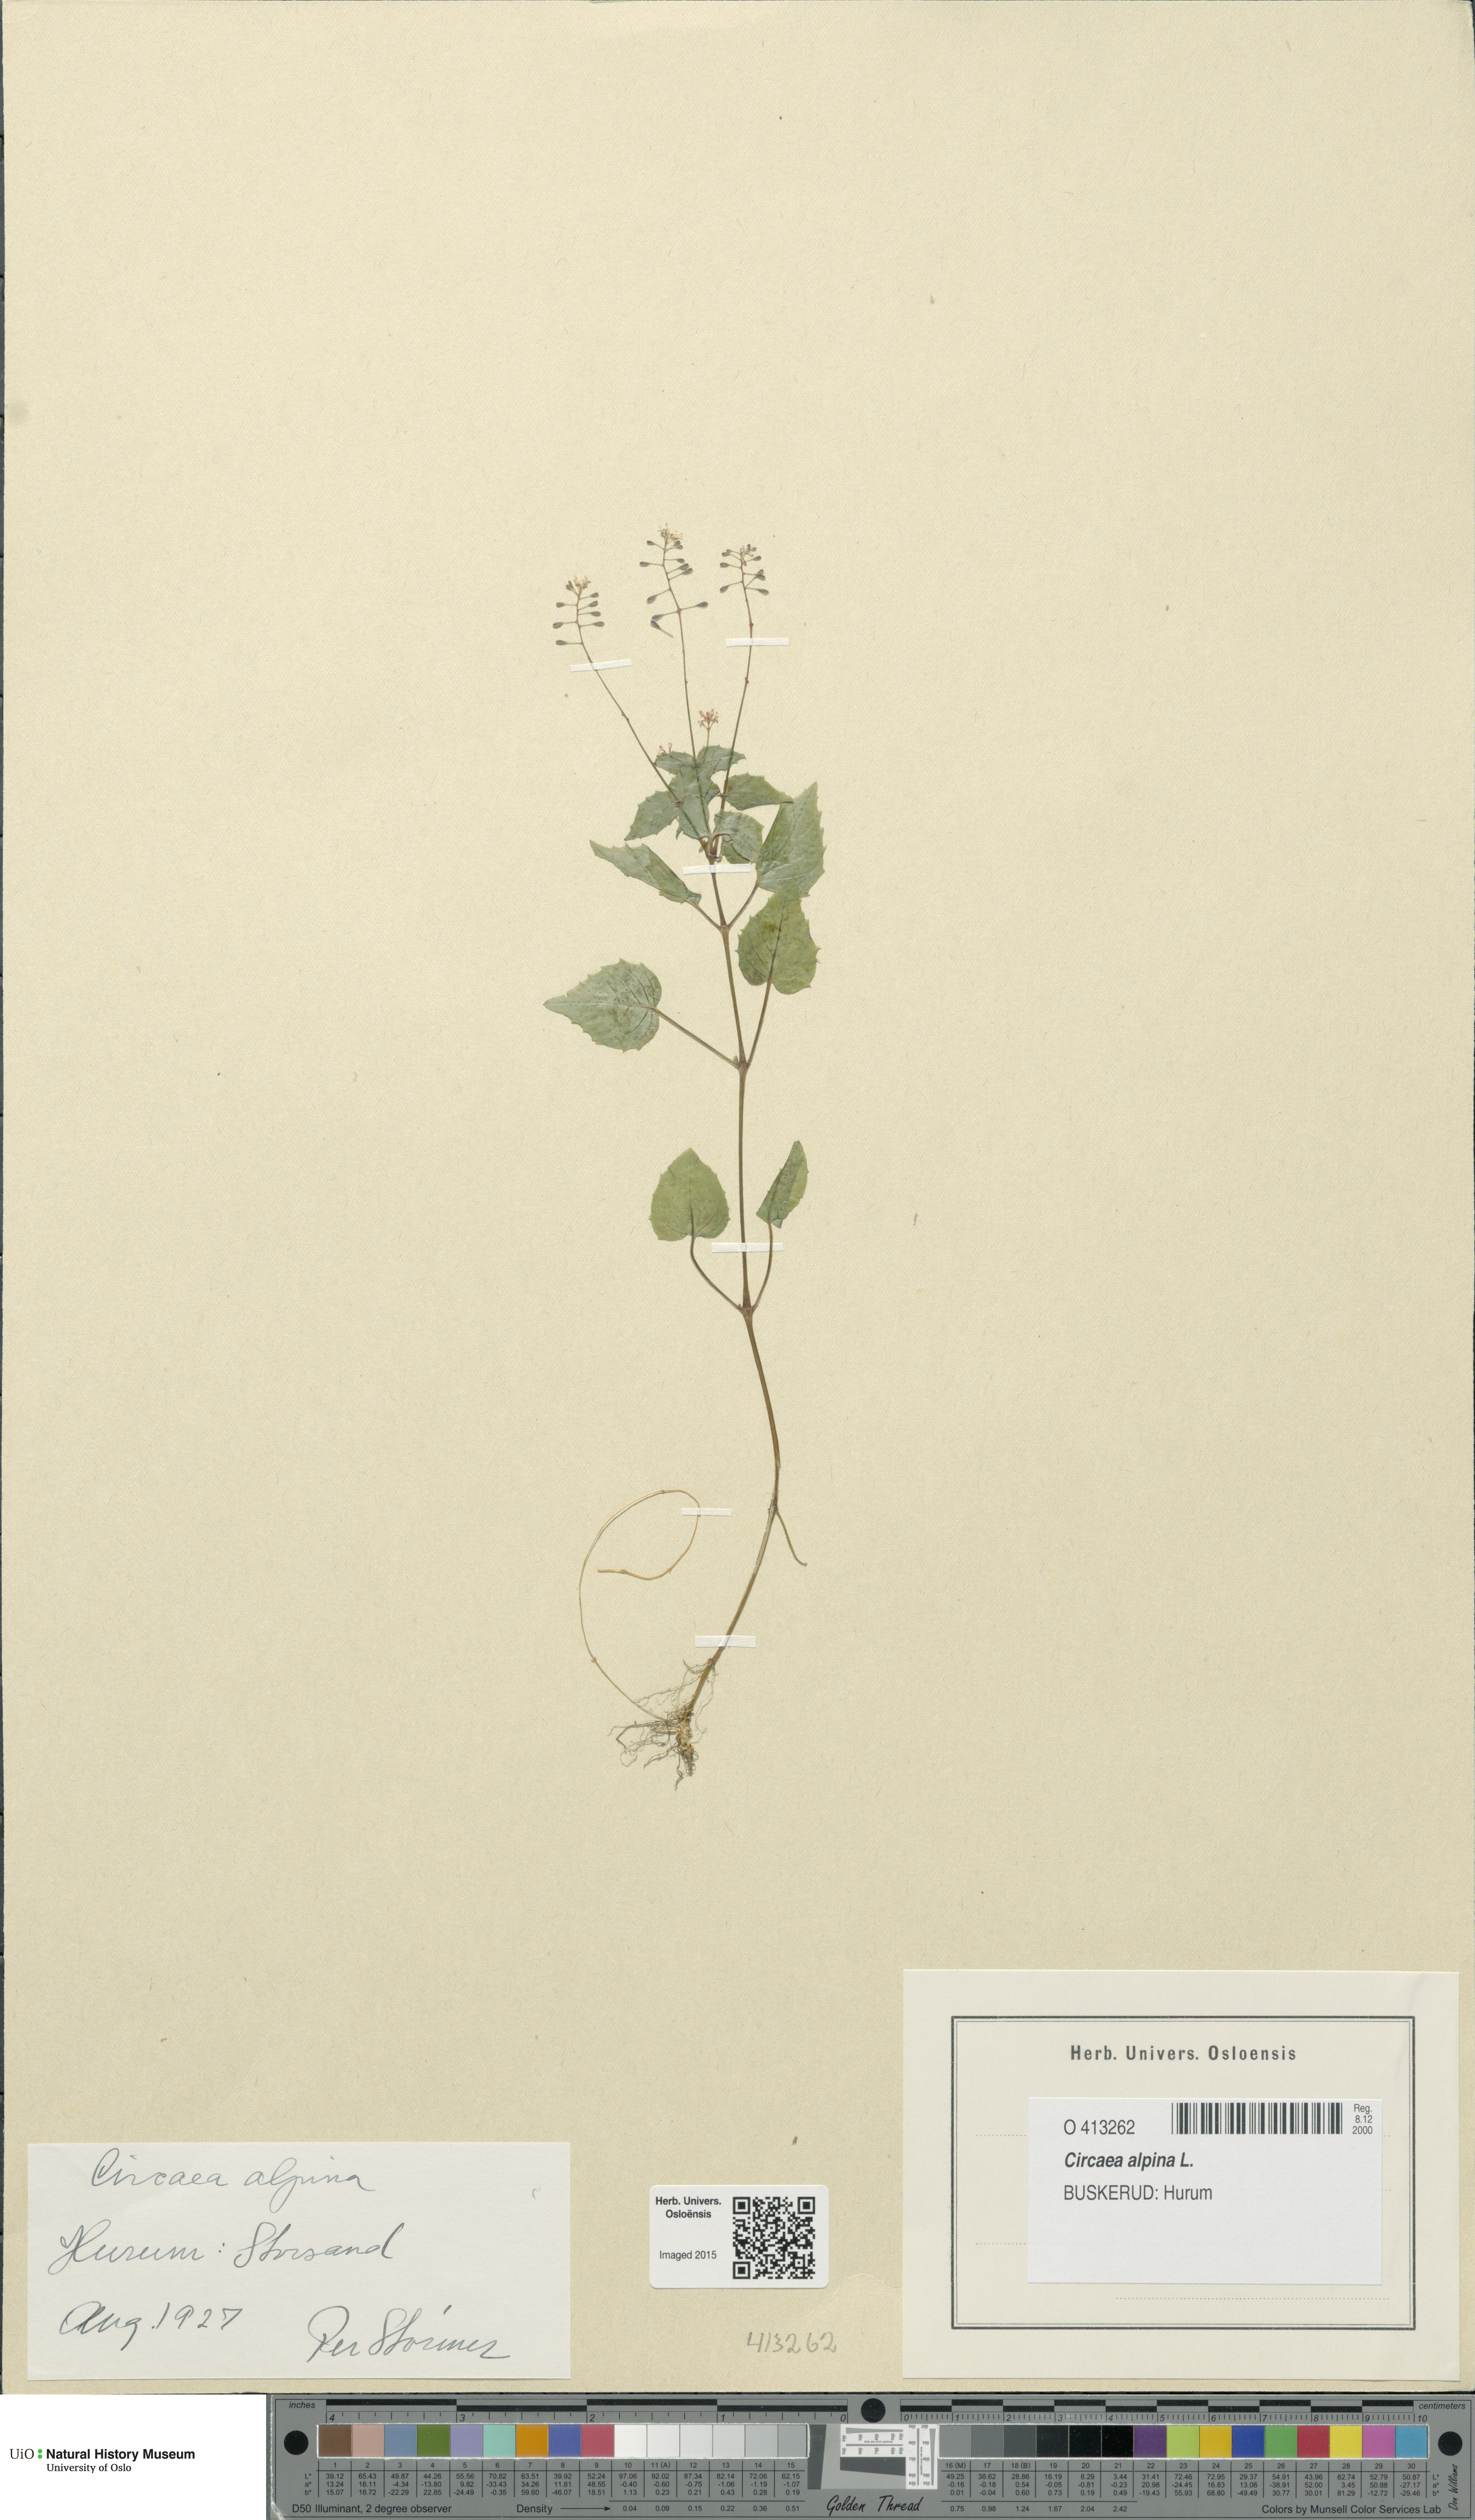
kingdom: Plantae
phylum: Tracheophyta
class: Magnoliopsida
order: Myrtales
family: Onagraceae
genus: Circaea
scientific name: Circaea alpina
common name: Alpine enchanter's-nightshade
